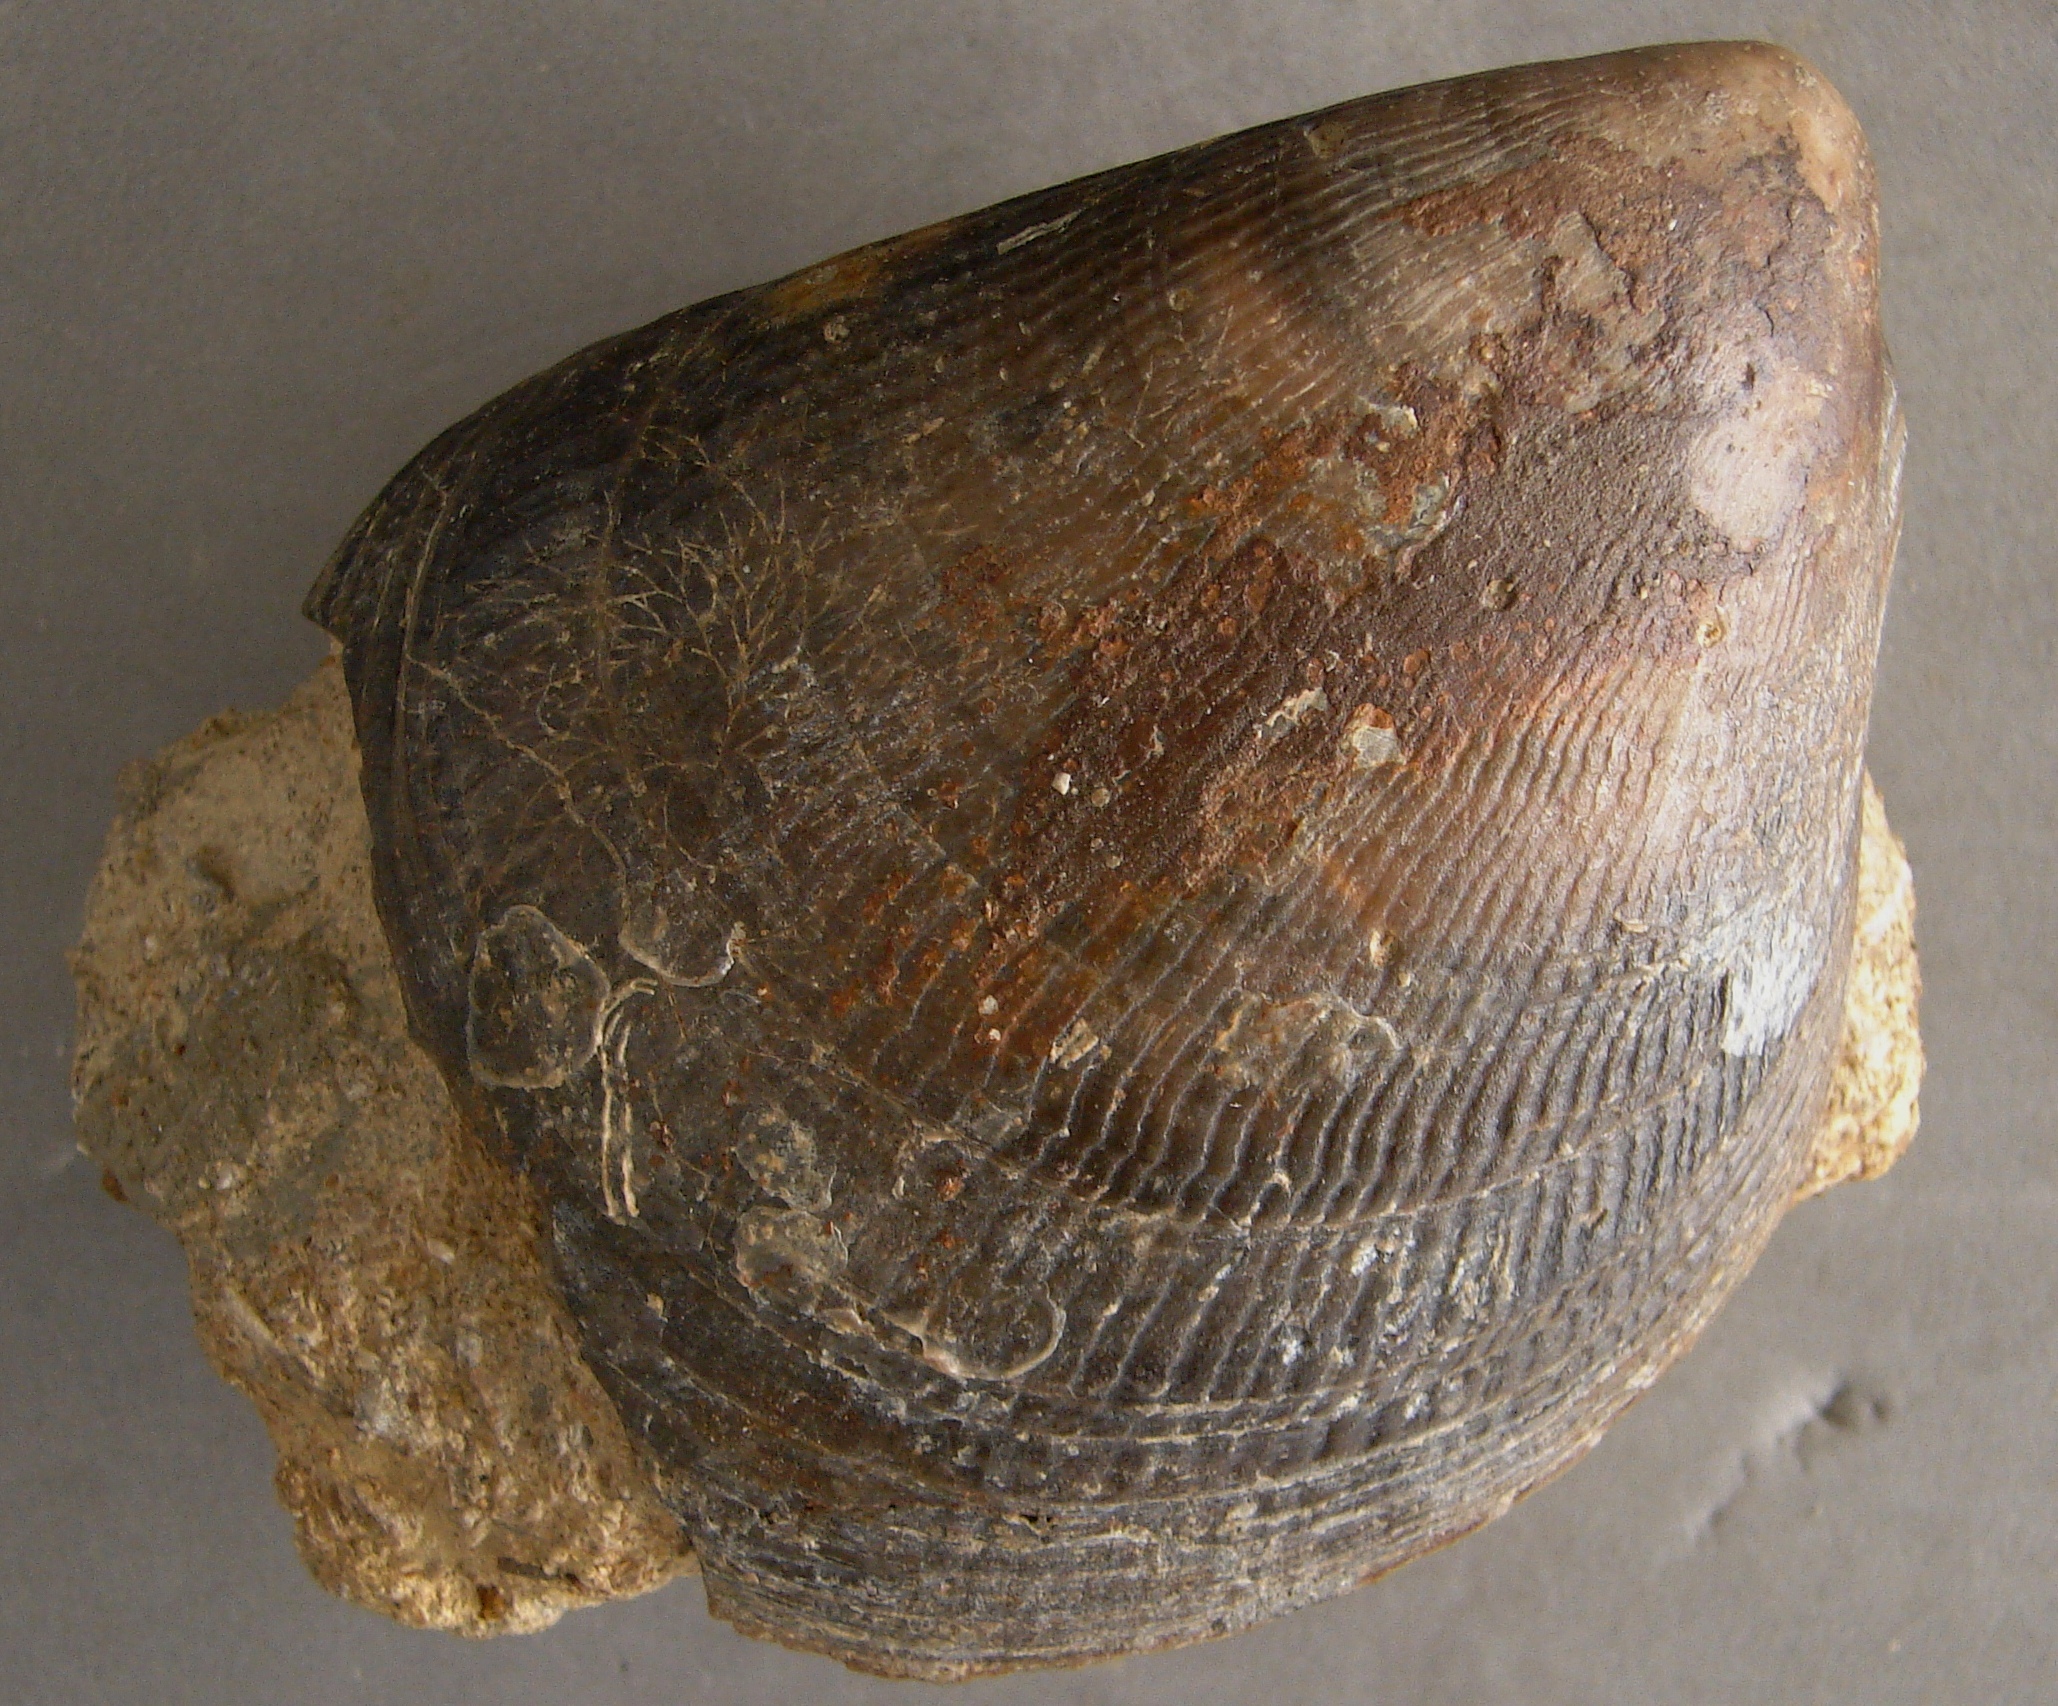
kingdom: Animalia
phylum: Mollusca
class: Bivalvia
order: Limida
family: Limidae
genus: Lima
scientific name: Lima semicircularis
